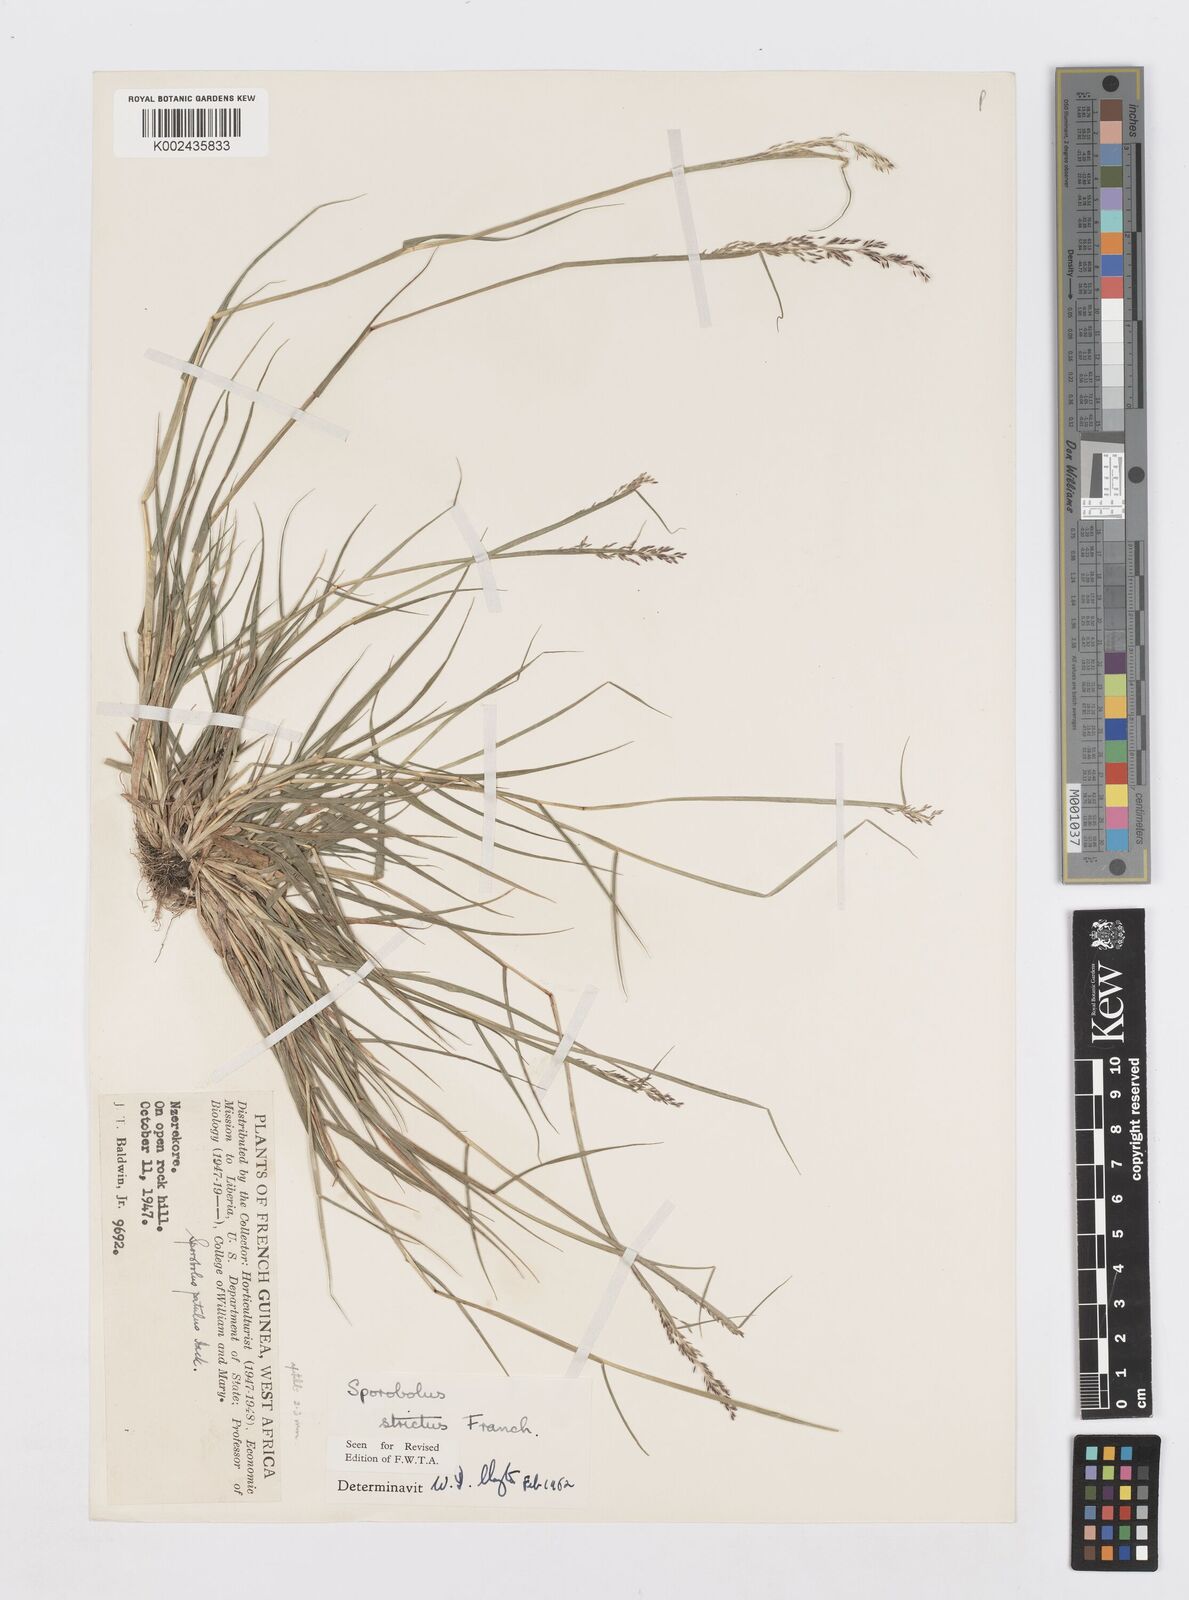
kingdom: Plantae
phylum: Tracheophyta
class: Liliopsida
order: Poales
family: Poaceae
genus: Sporobolus
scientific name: Sporobolus paniculatus
